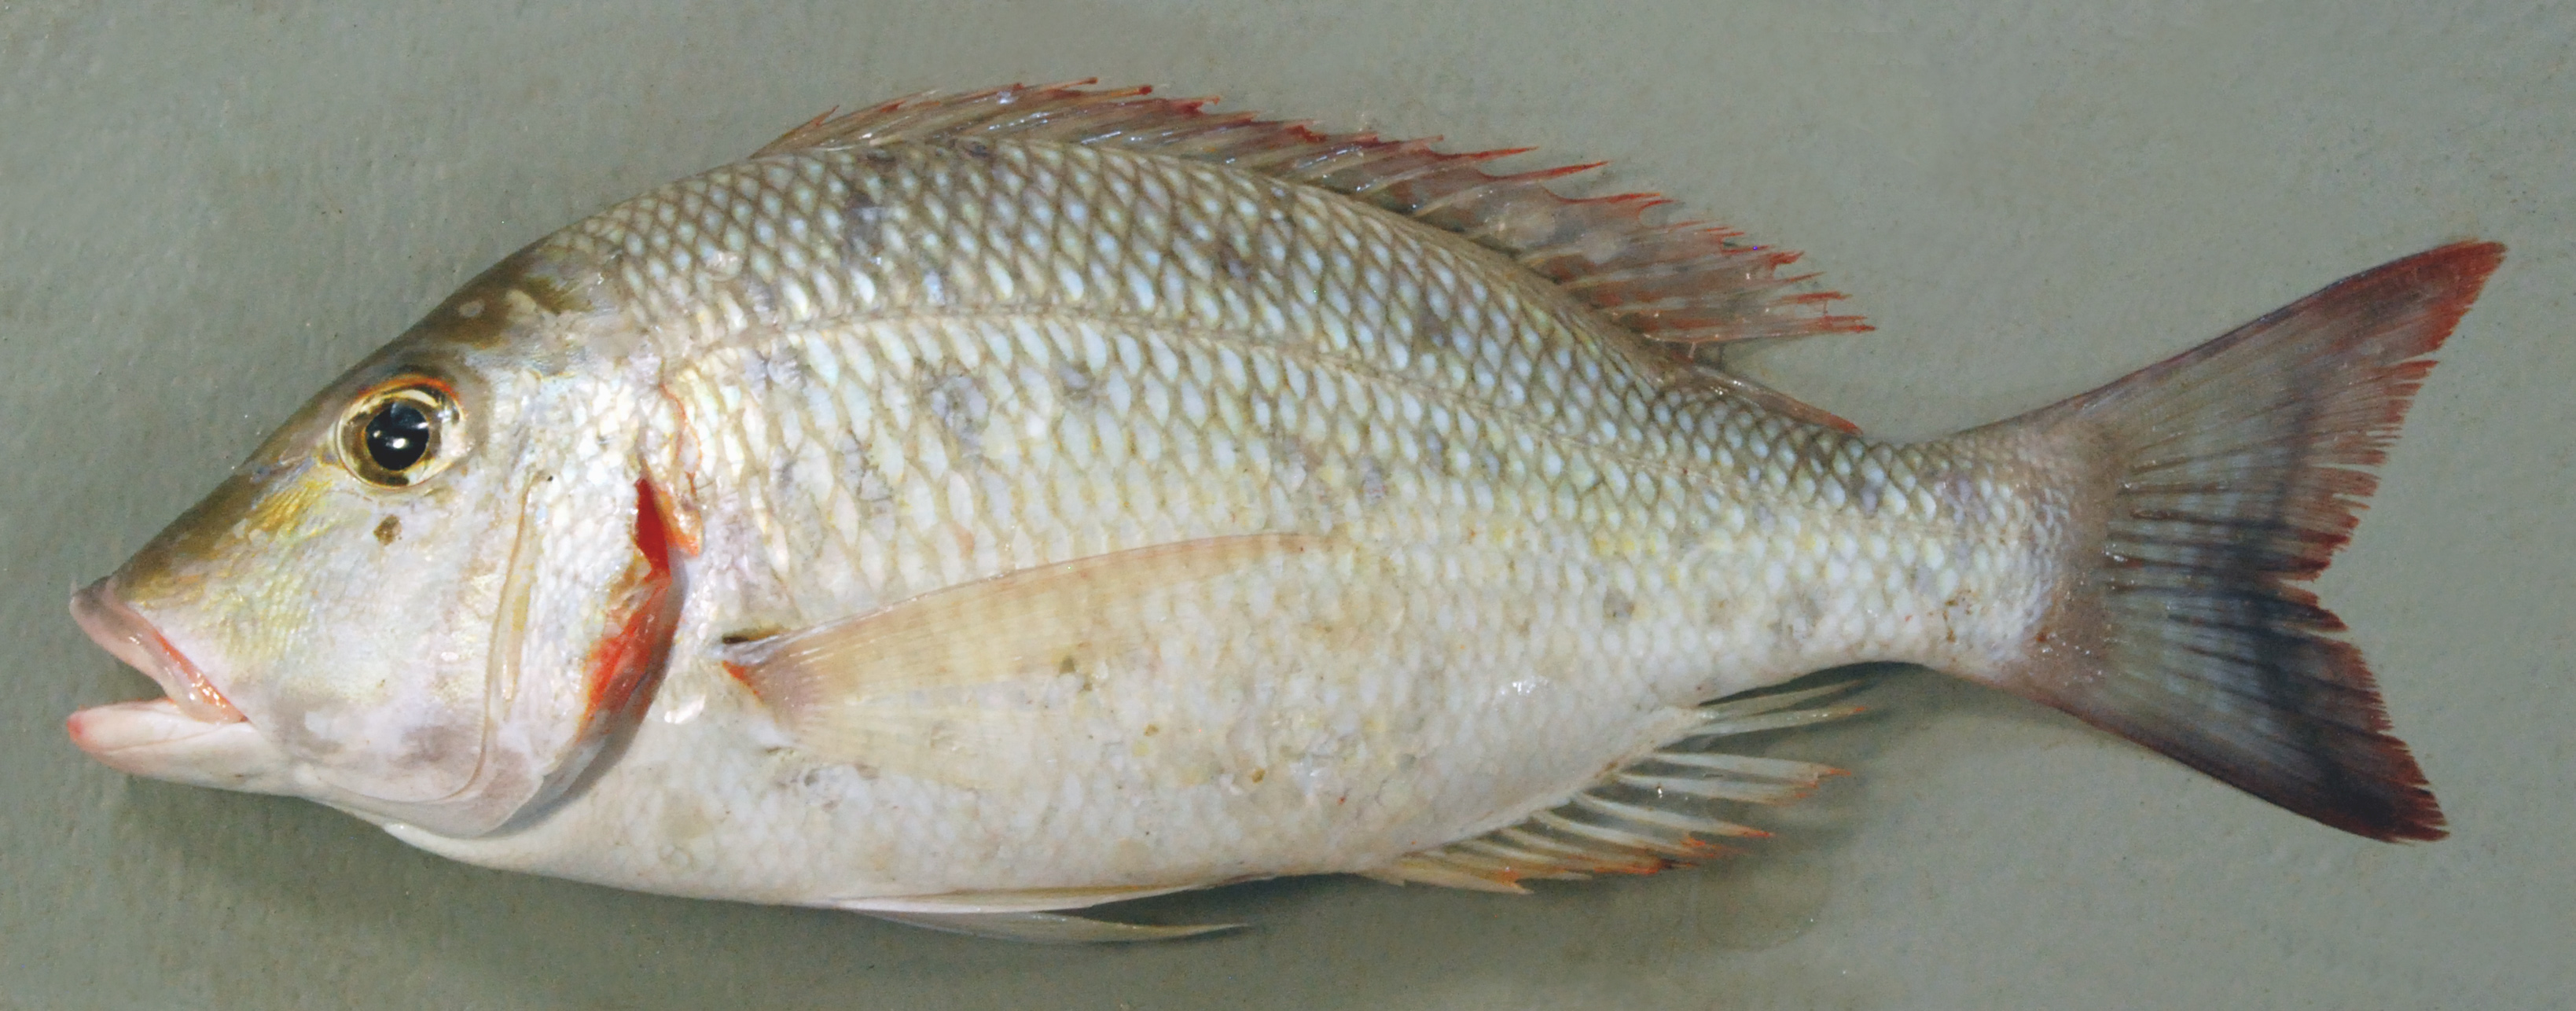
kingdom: Animalia
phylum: Chordata
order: Perciformes
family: Lethrinidae
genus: Lethrinus
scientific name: Lethrinus lentjan
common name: Redspot emperor
